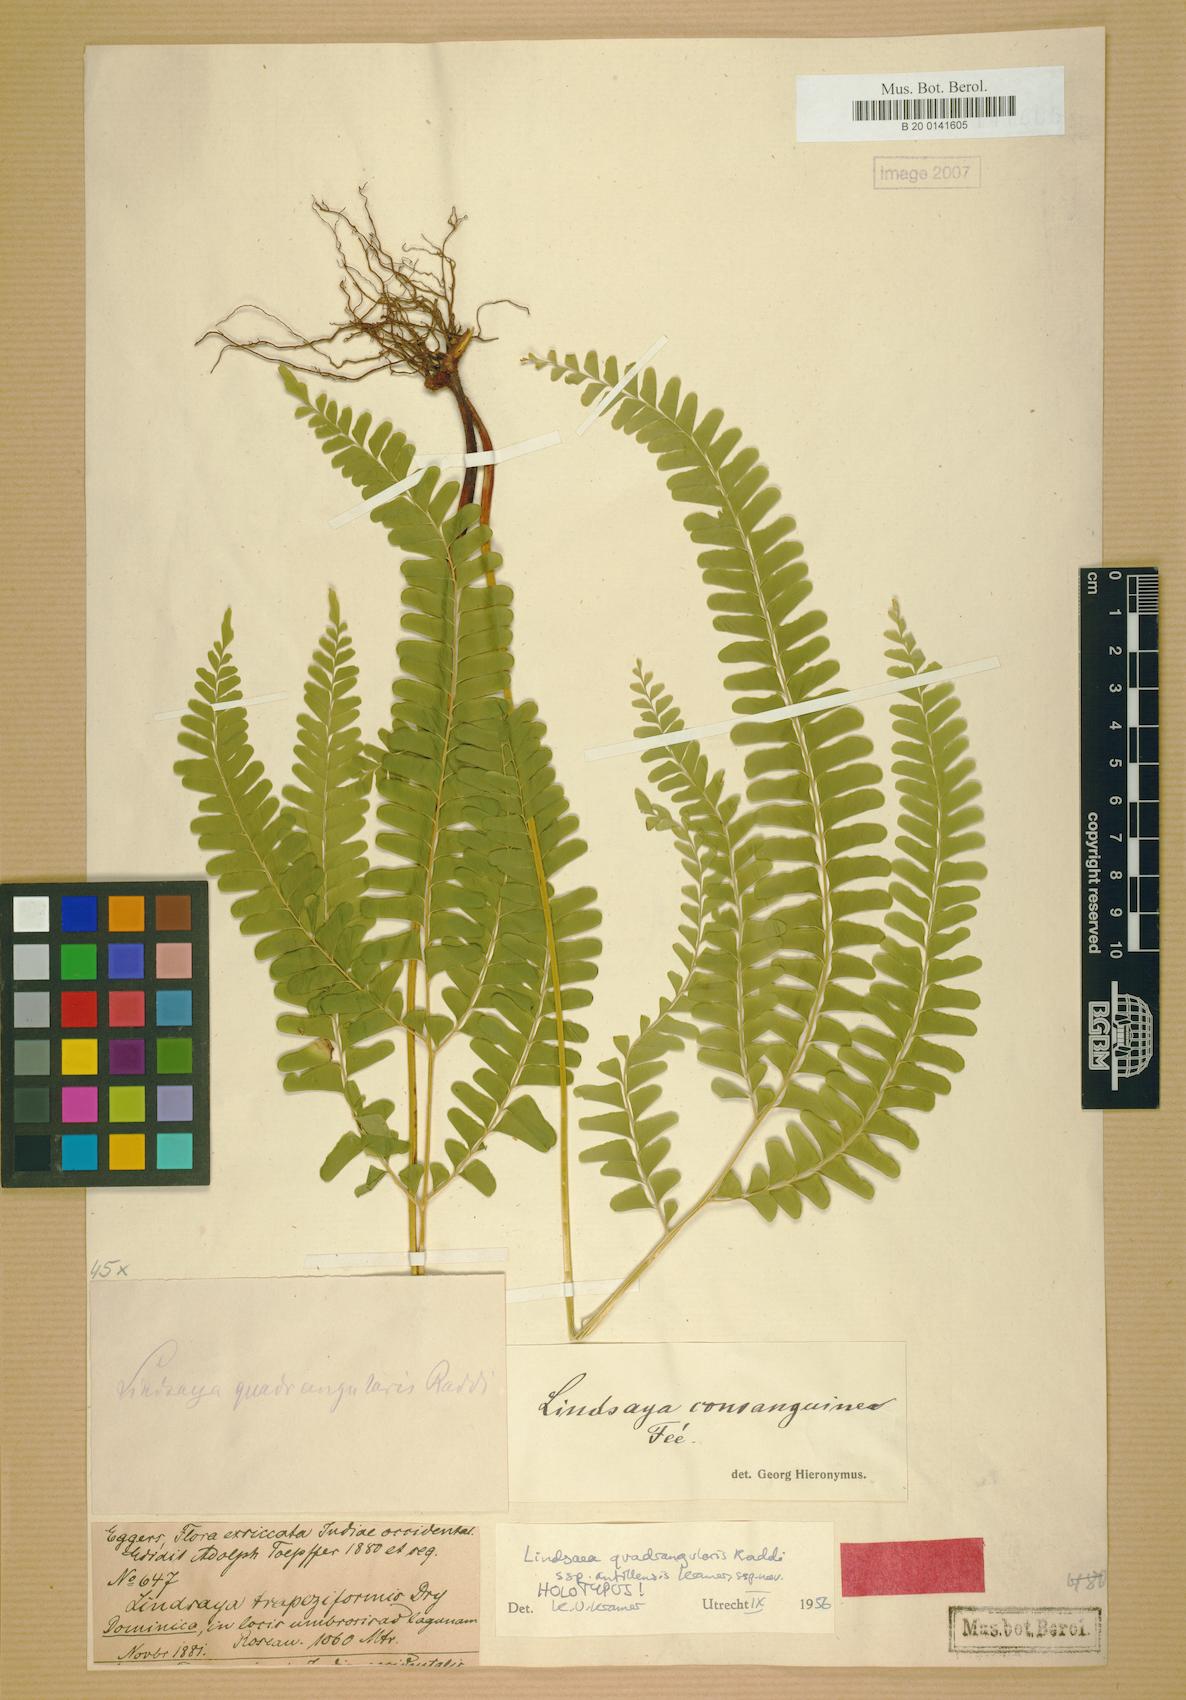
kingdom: Plantae
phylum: Tracheophyta
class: Polypodiopsida
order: Polypodiales
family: Lindsaeaceae
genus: Lindsaea
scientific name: Lindsaea quadrangularis
